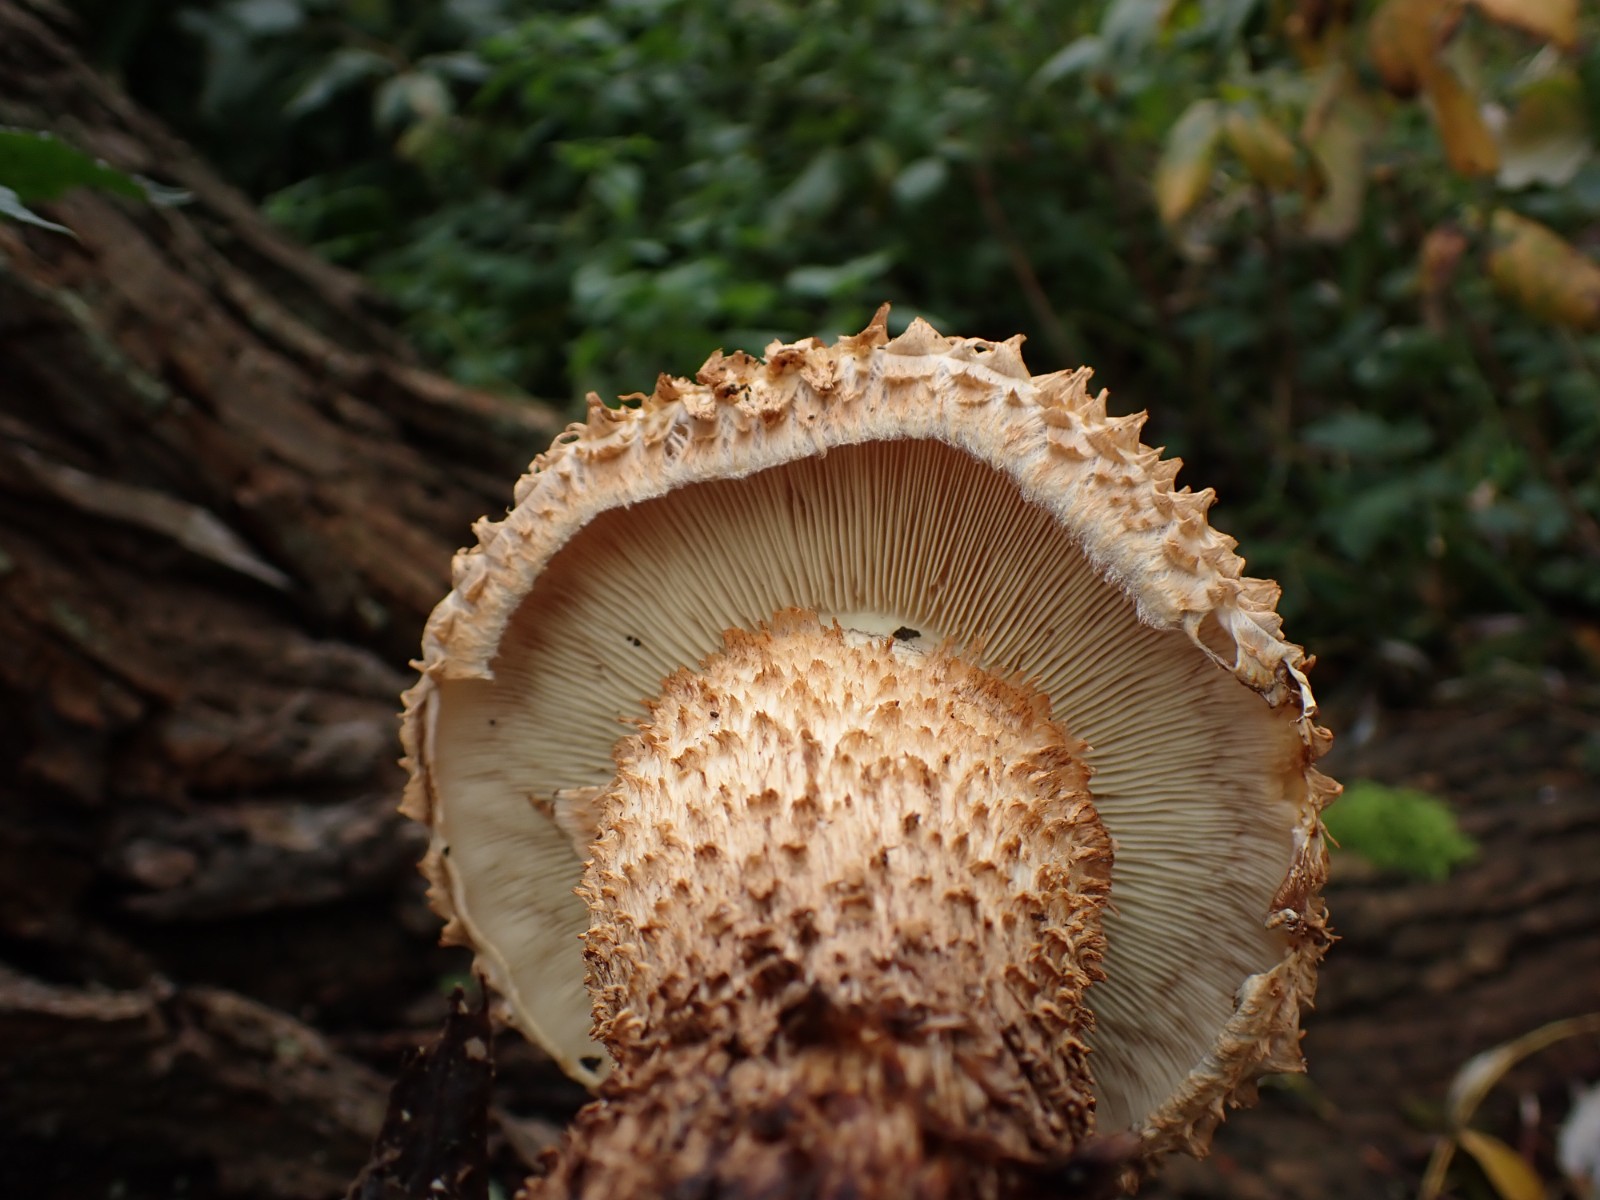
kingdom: Fungi
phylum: Basidiomycota
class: Agaricomycetes
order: Agaricales
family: Strophariaceae
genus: Pholiota
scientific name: Pholiota squarrosa
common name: krumskællet skælhat
